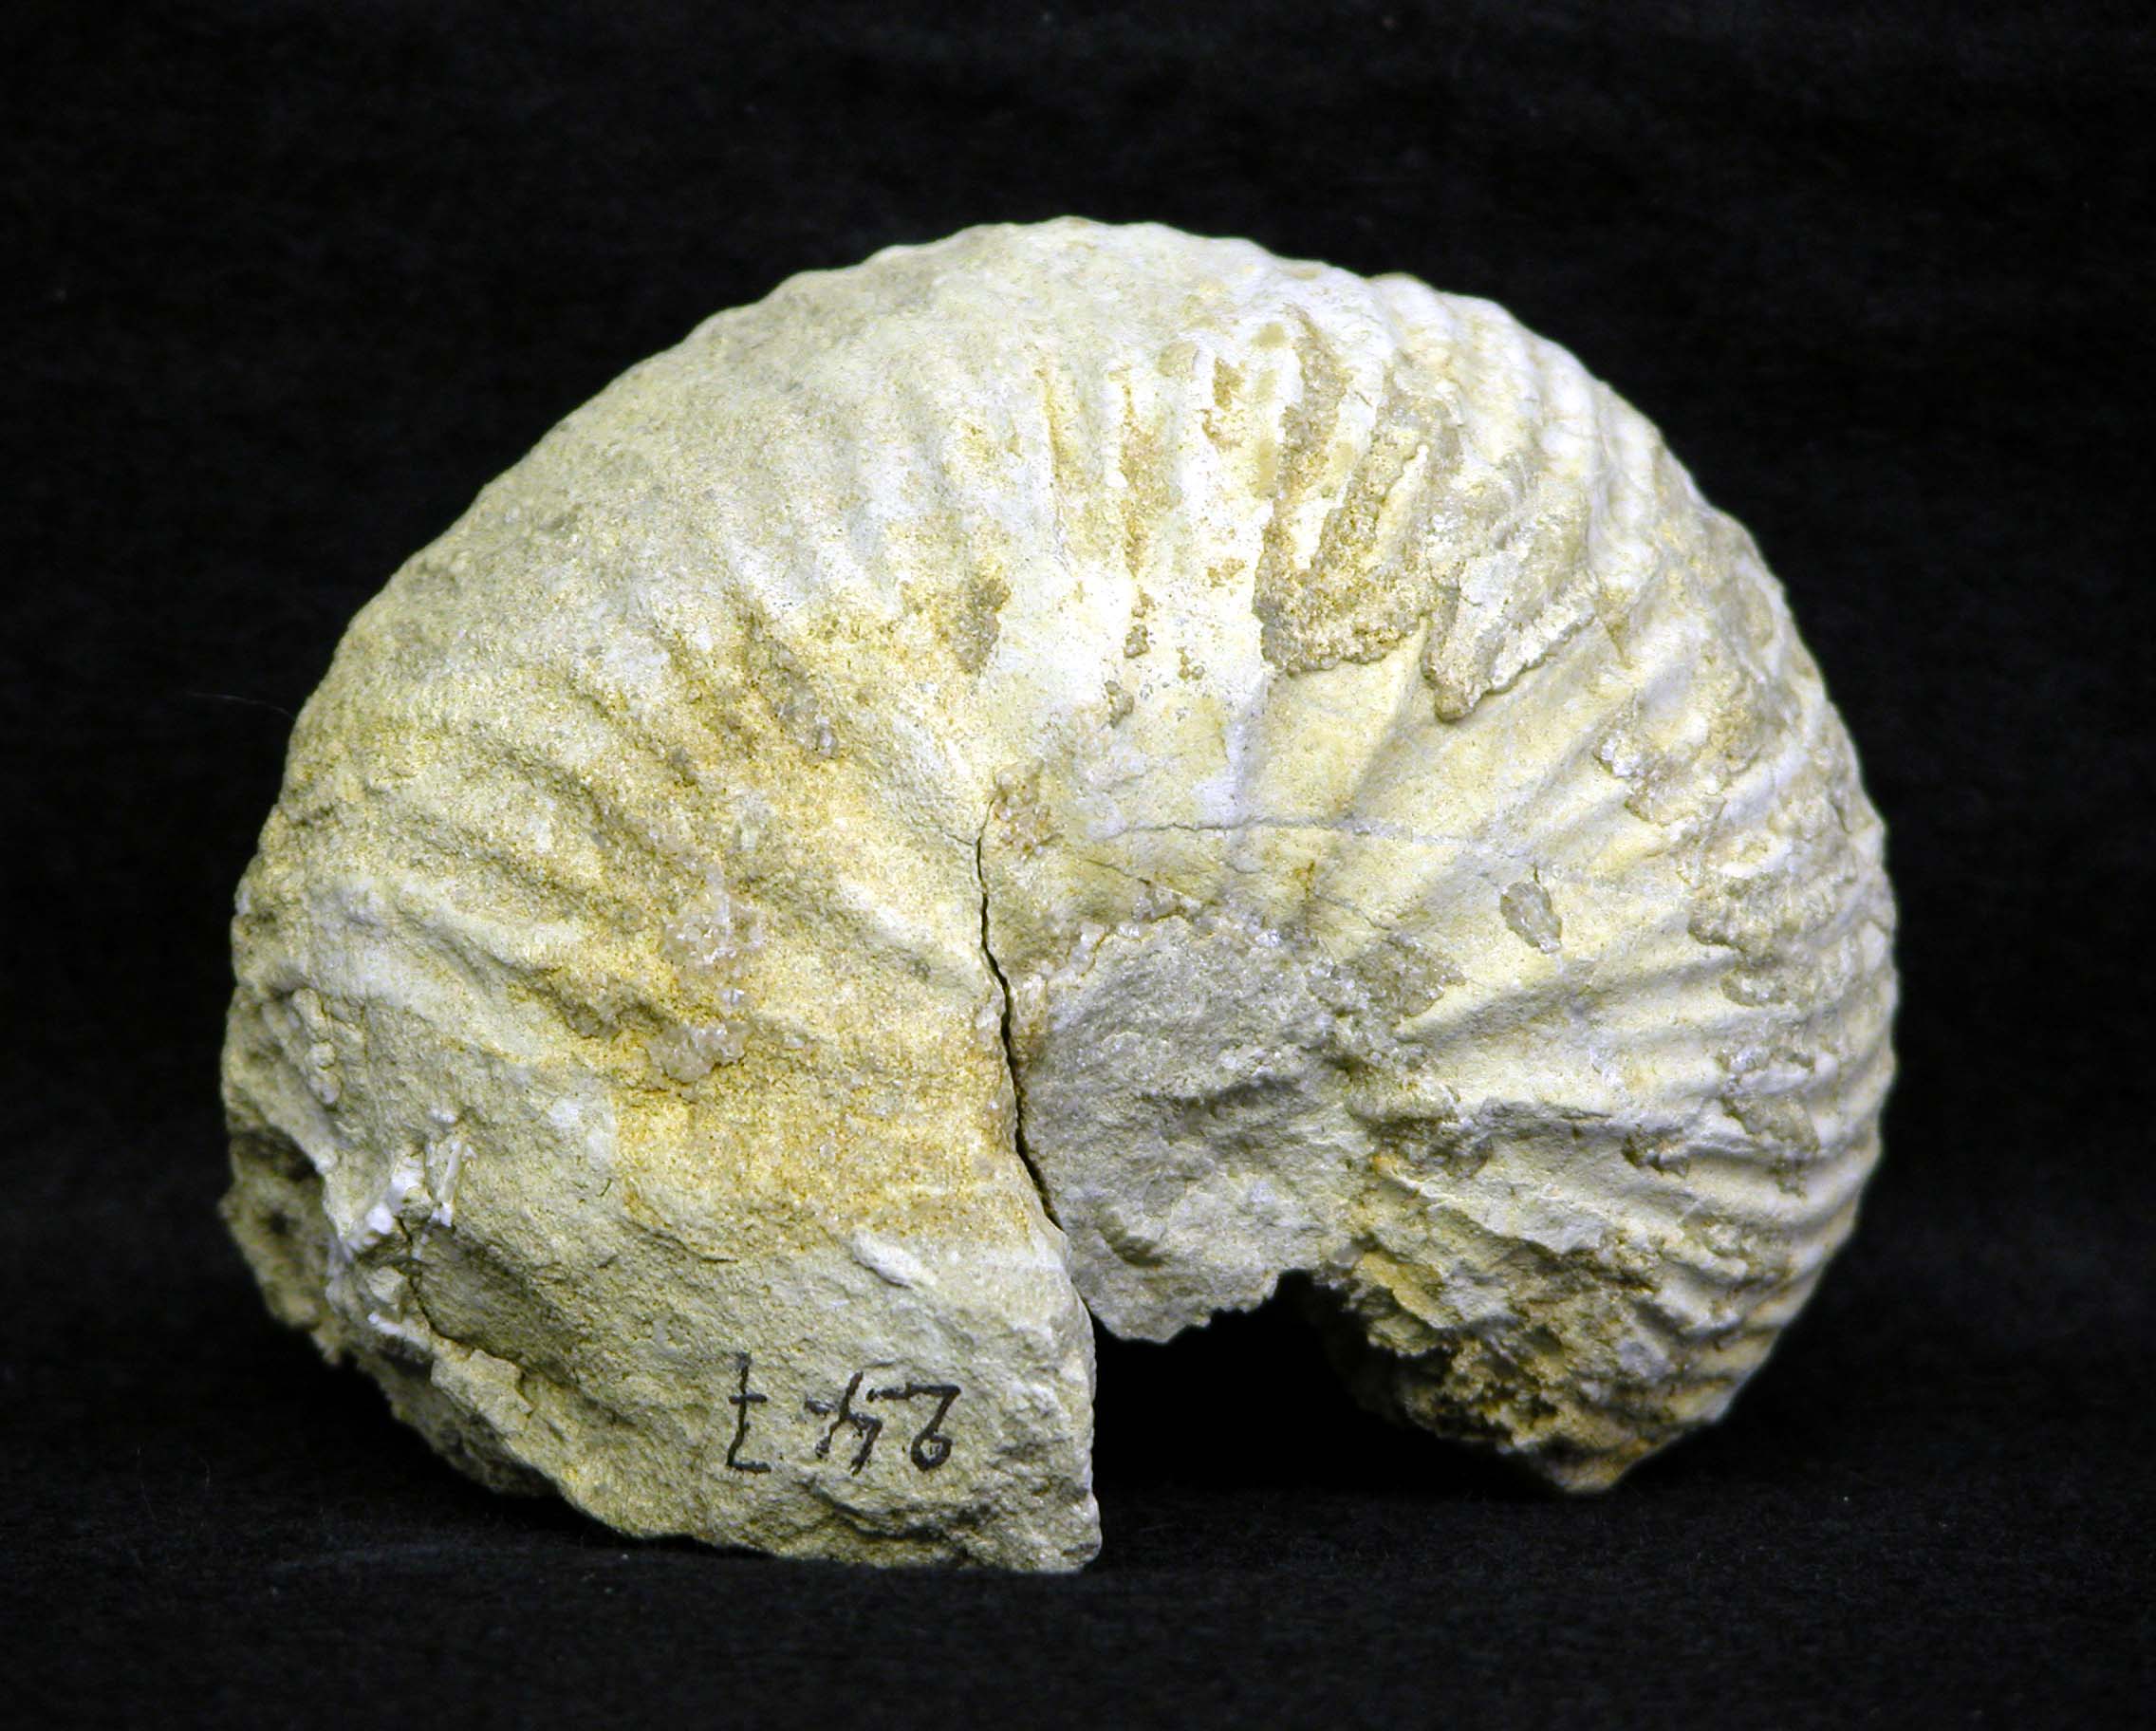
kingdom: Animalia
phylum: Mollusca
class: Cephalopoda
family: Cardioceratidae
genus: Goliathiceras
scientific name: Goliathiceras
